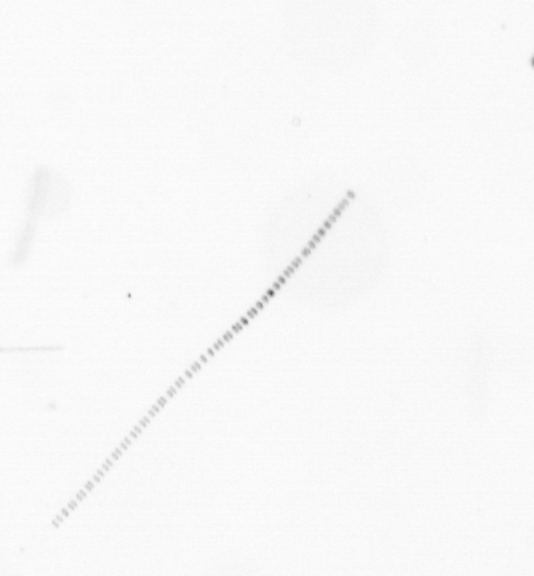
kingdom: Chromista
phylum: Ochrophyta
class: Bacillariophyceae
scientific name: Bacillariophyceae
